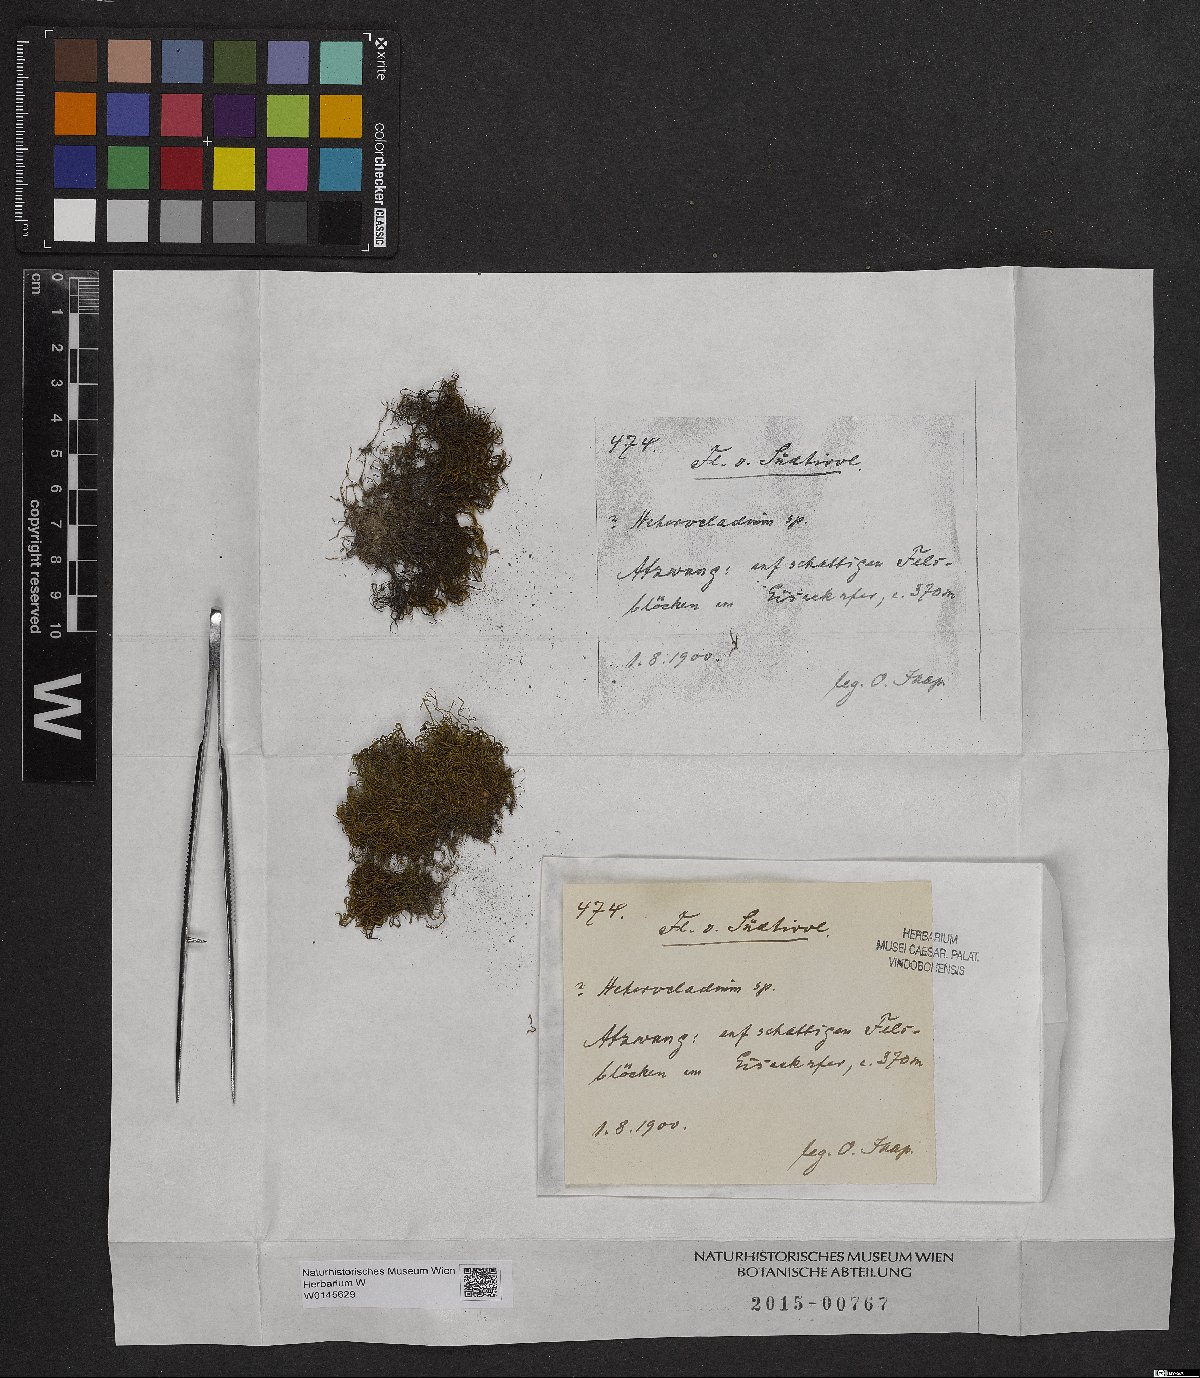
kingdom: Plantae
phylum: Bryophyta
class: Bryopsida
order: Hypnales
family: Lembophyllaceae
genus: Heterocladium
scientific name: Heterocladium
